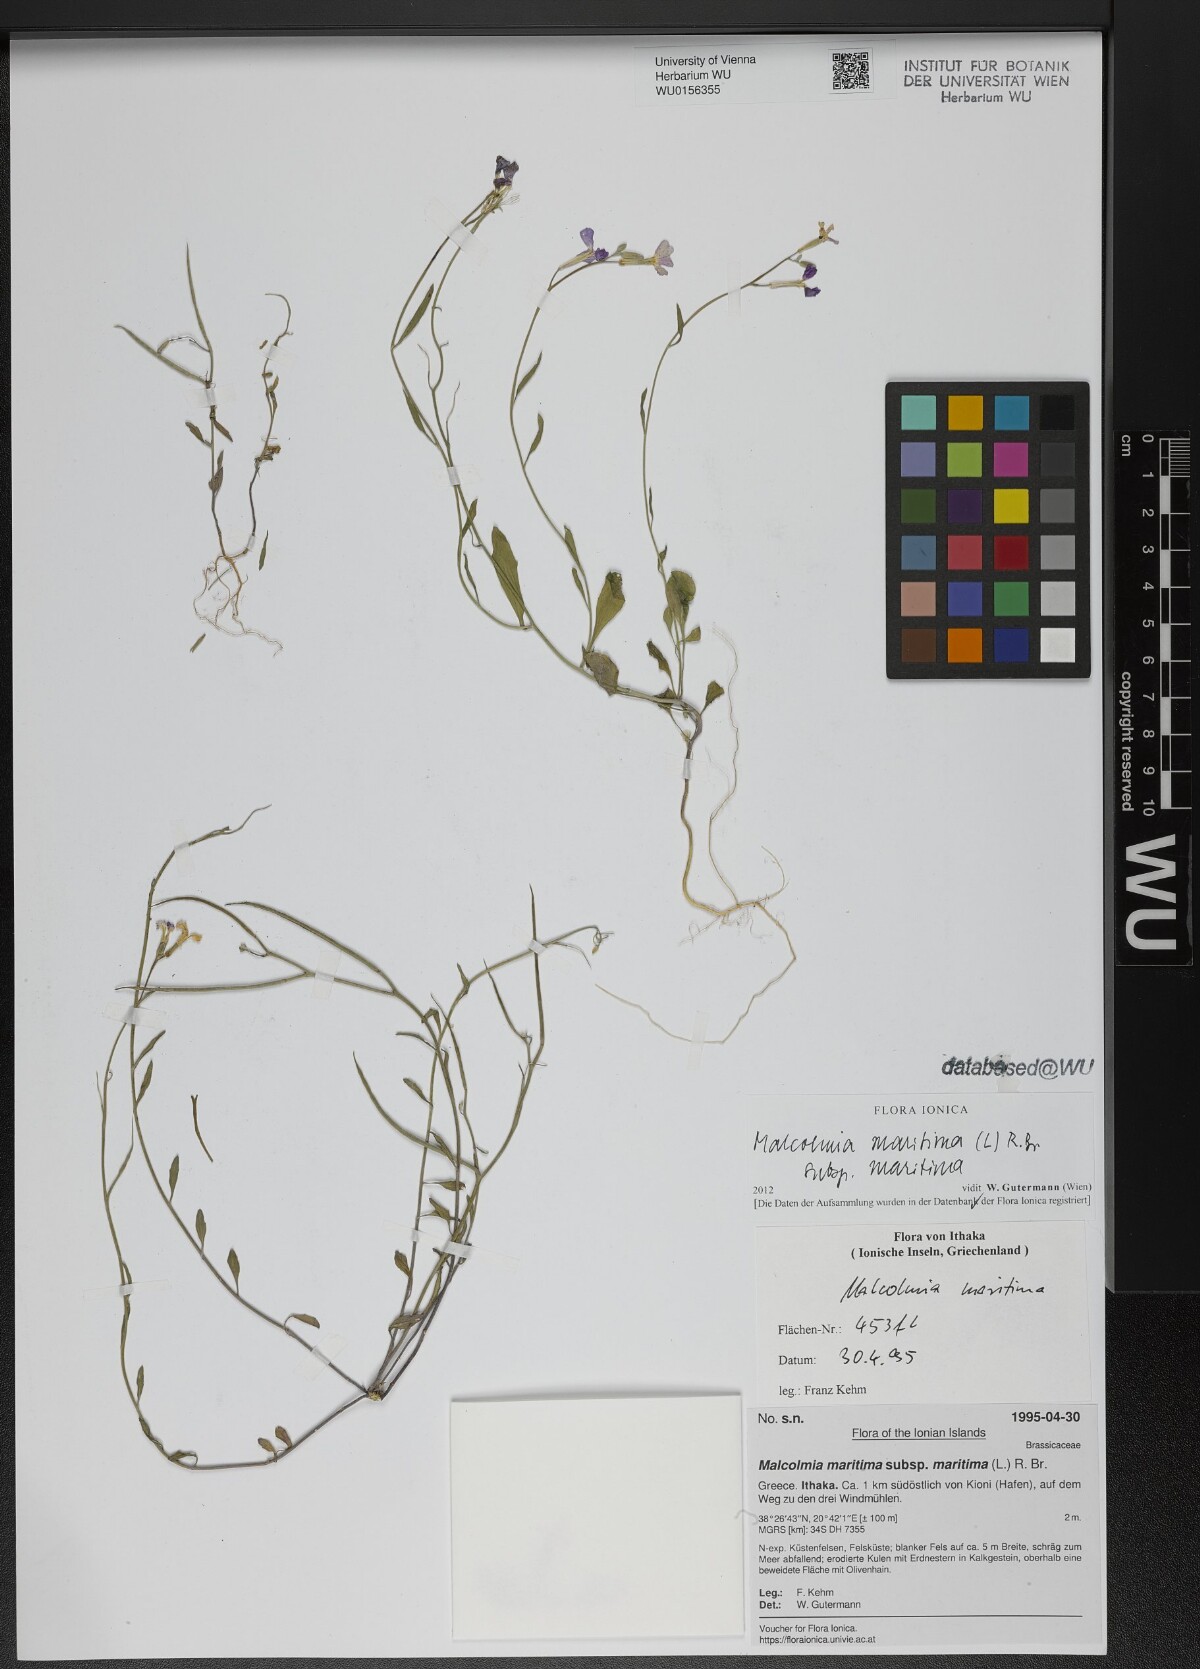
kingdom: Plantae
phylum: Tracheophyta
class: Magnoliopsida
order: Brassicales
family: Brassicaceae
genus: Malcolmia
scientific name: Malcolmia maritima
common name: Virginia stock
